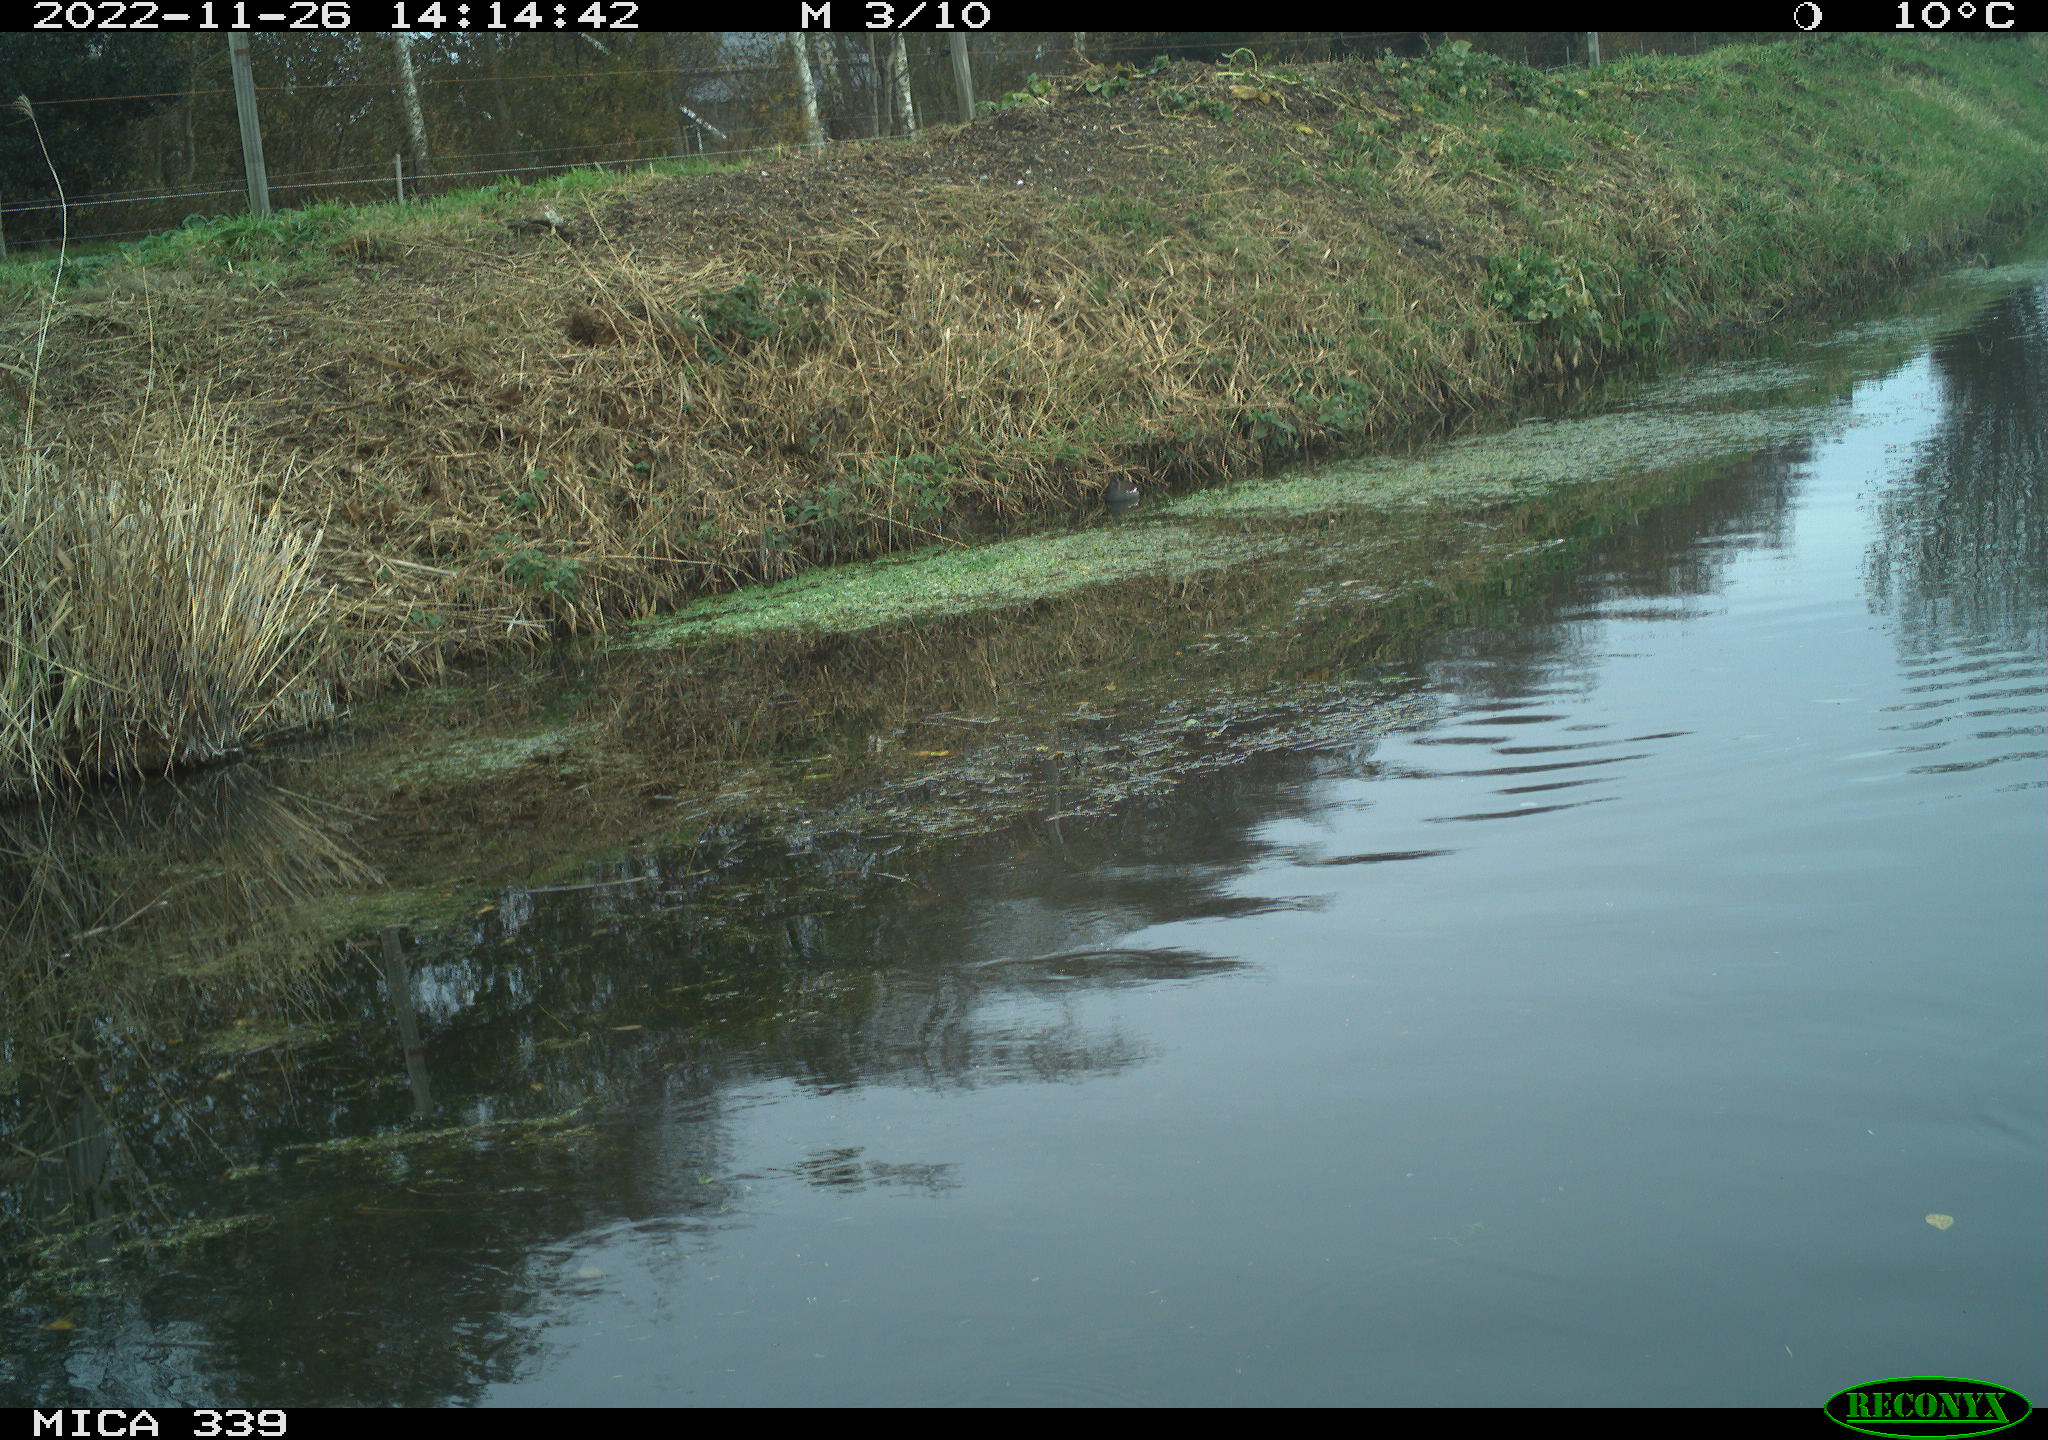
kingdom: Animalia
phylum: Chordata
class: Aves
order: Pelecaniformes
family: Ardeidae
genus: Ardea
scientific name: Ardea cinerea
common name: Grey heron
